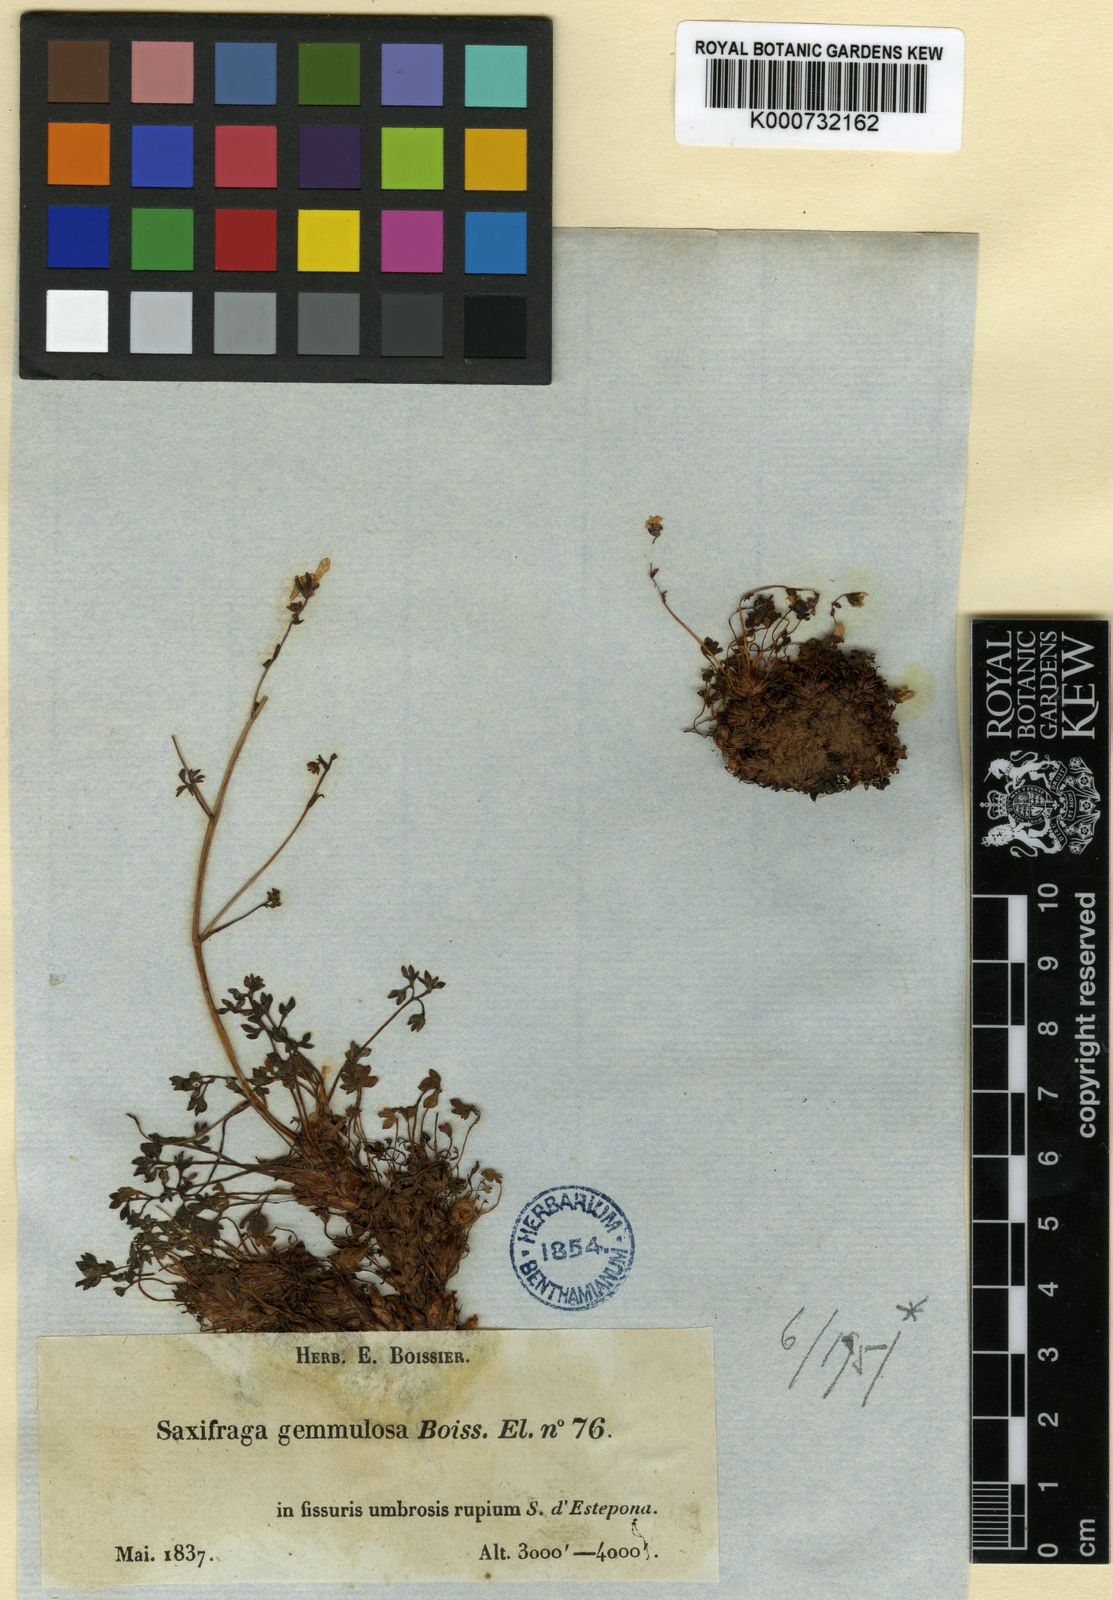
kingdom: Plantae
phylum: Tracheophyta
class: Magnoliopsida
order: Saxifragales
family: Saxifragaceae
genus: Saxifraga
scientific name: Saxifraga gemmulosa
